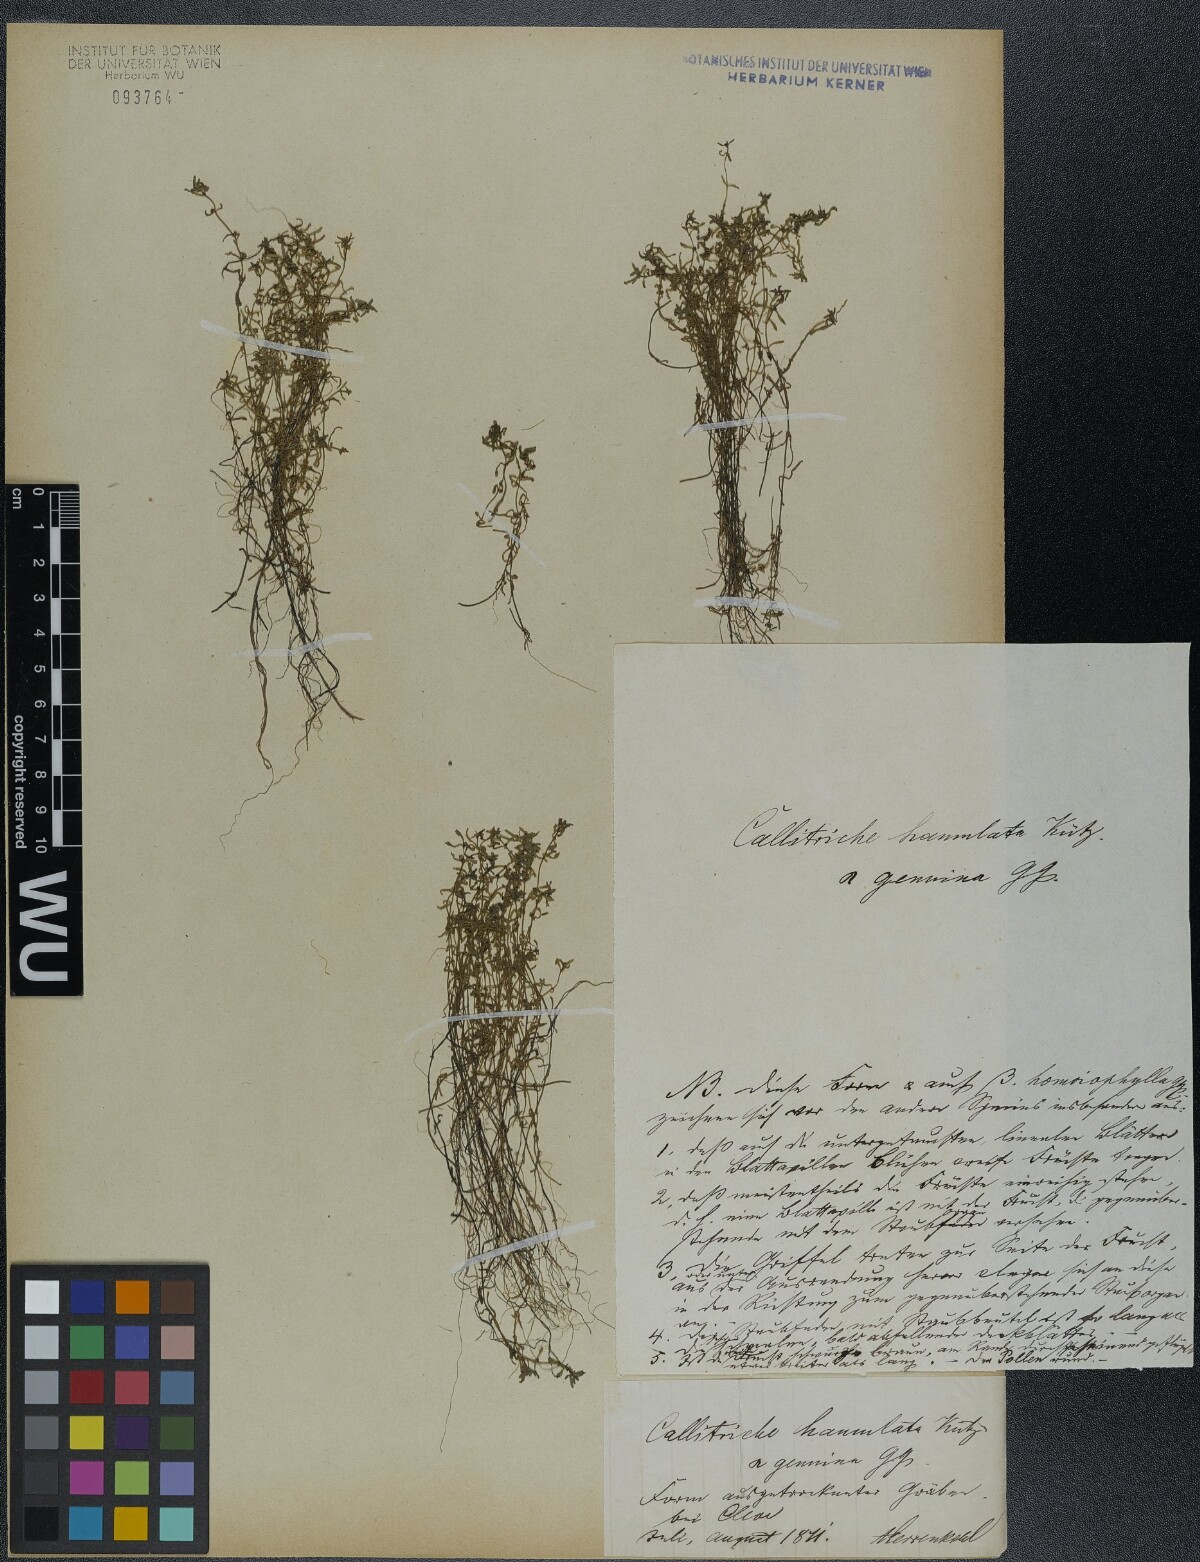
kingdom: Plantae
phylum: Tracheophyta
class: Magnoliopsida
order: Lamiales
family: Plantaginaceae
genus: Callitriche
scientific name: Callitriche hamulata
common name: Intermediate water-starwort
